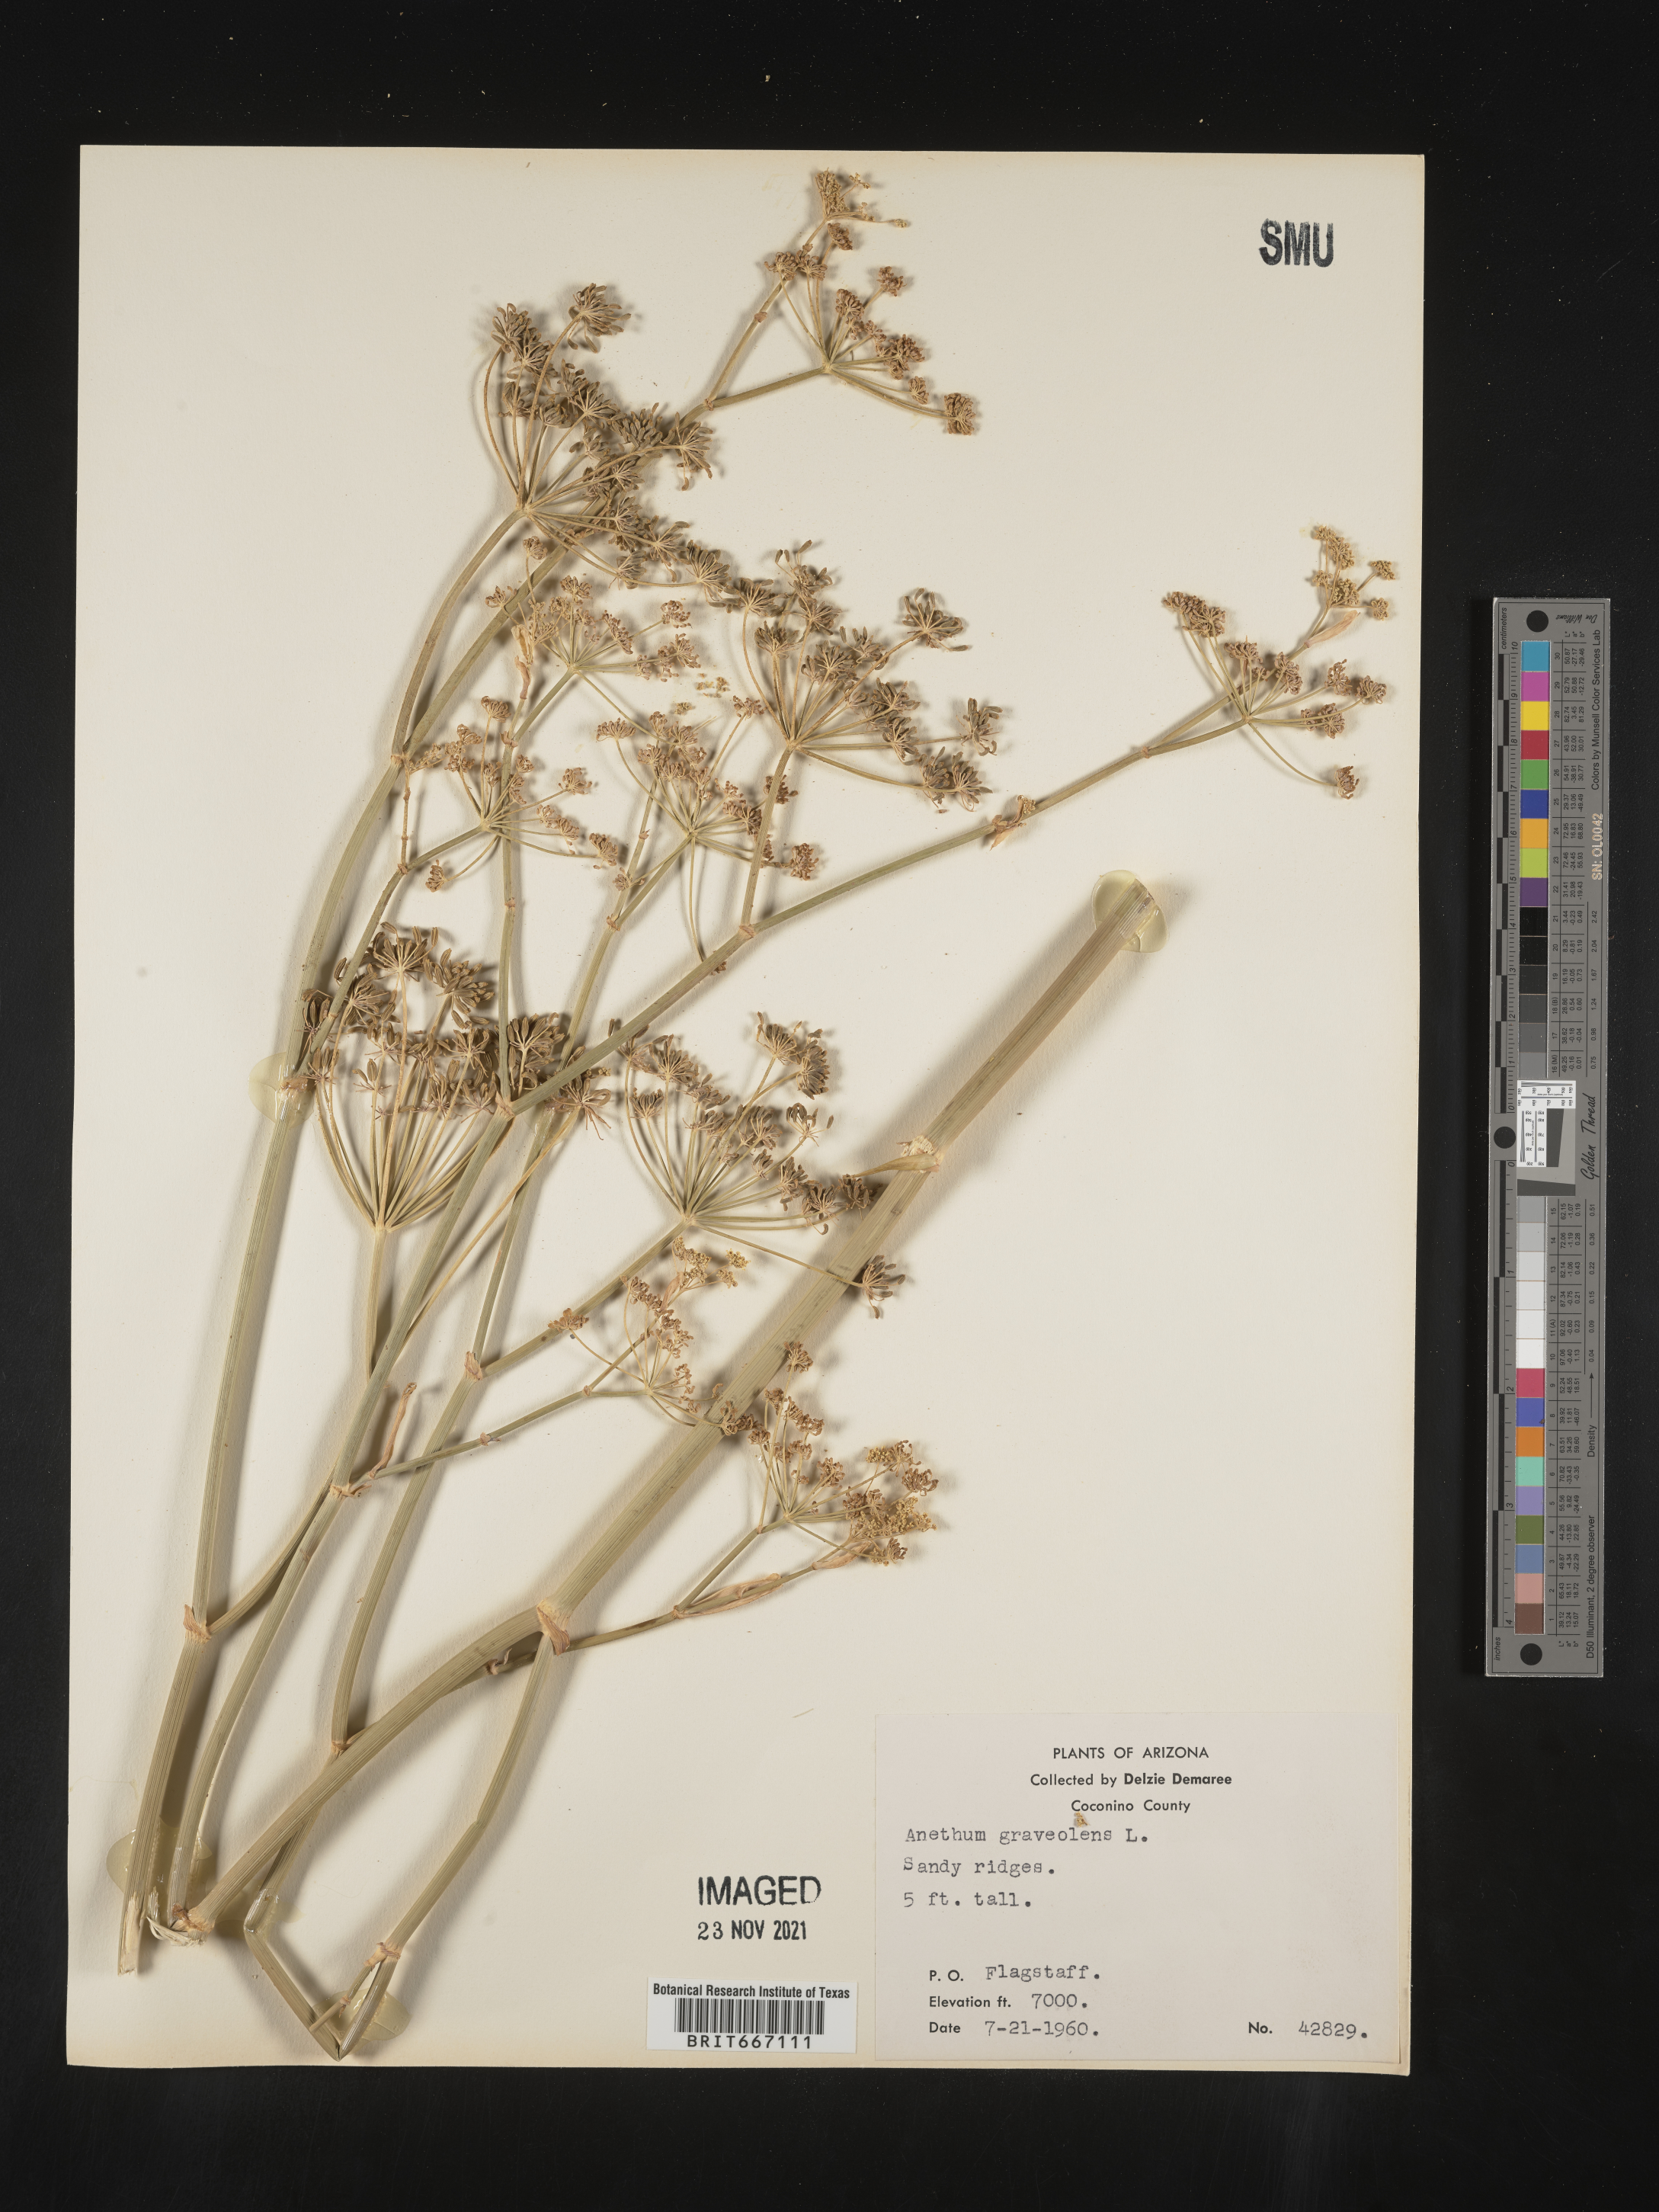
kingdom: Plantae
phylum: Tracheophyta
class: Magnoliopsida
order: Apiales
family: Apiaceae
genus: Anethum
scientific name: Anethum
